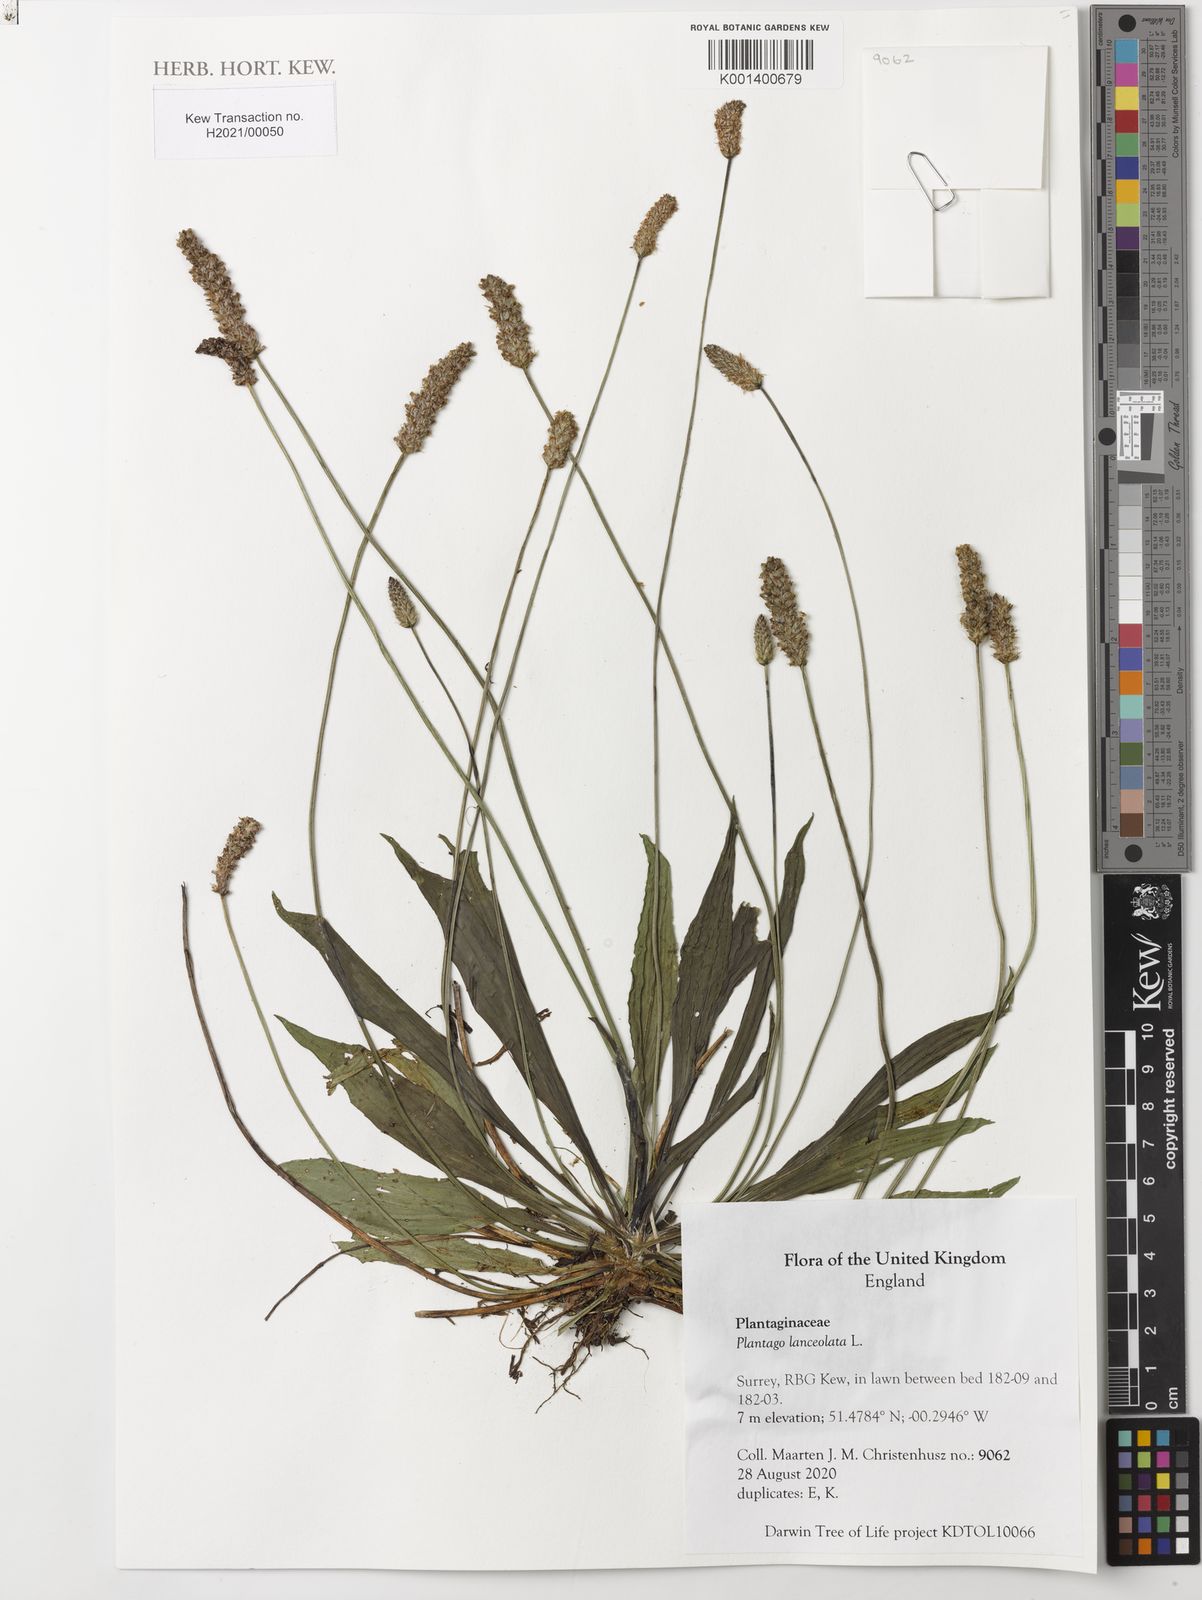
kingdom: Plantae
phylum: Tracheophyta
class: Magnoliopsida
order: Lamiales
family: Plantaginaceae
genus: Plantago
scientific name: Plantago lanceolata
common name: Ribwort plantain
